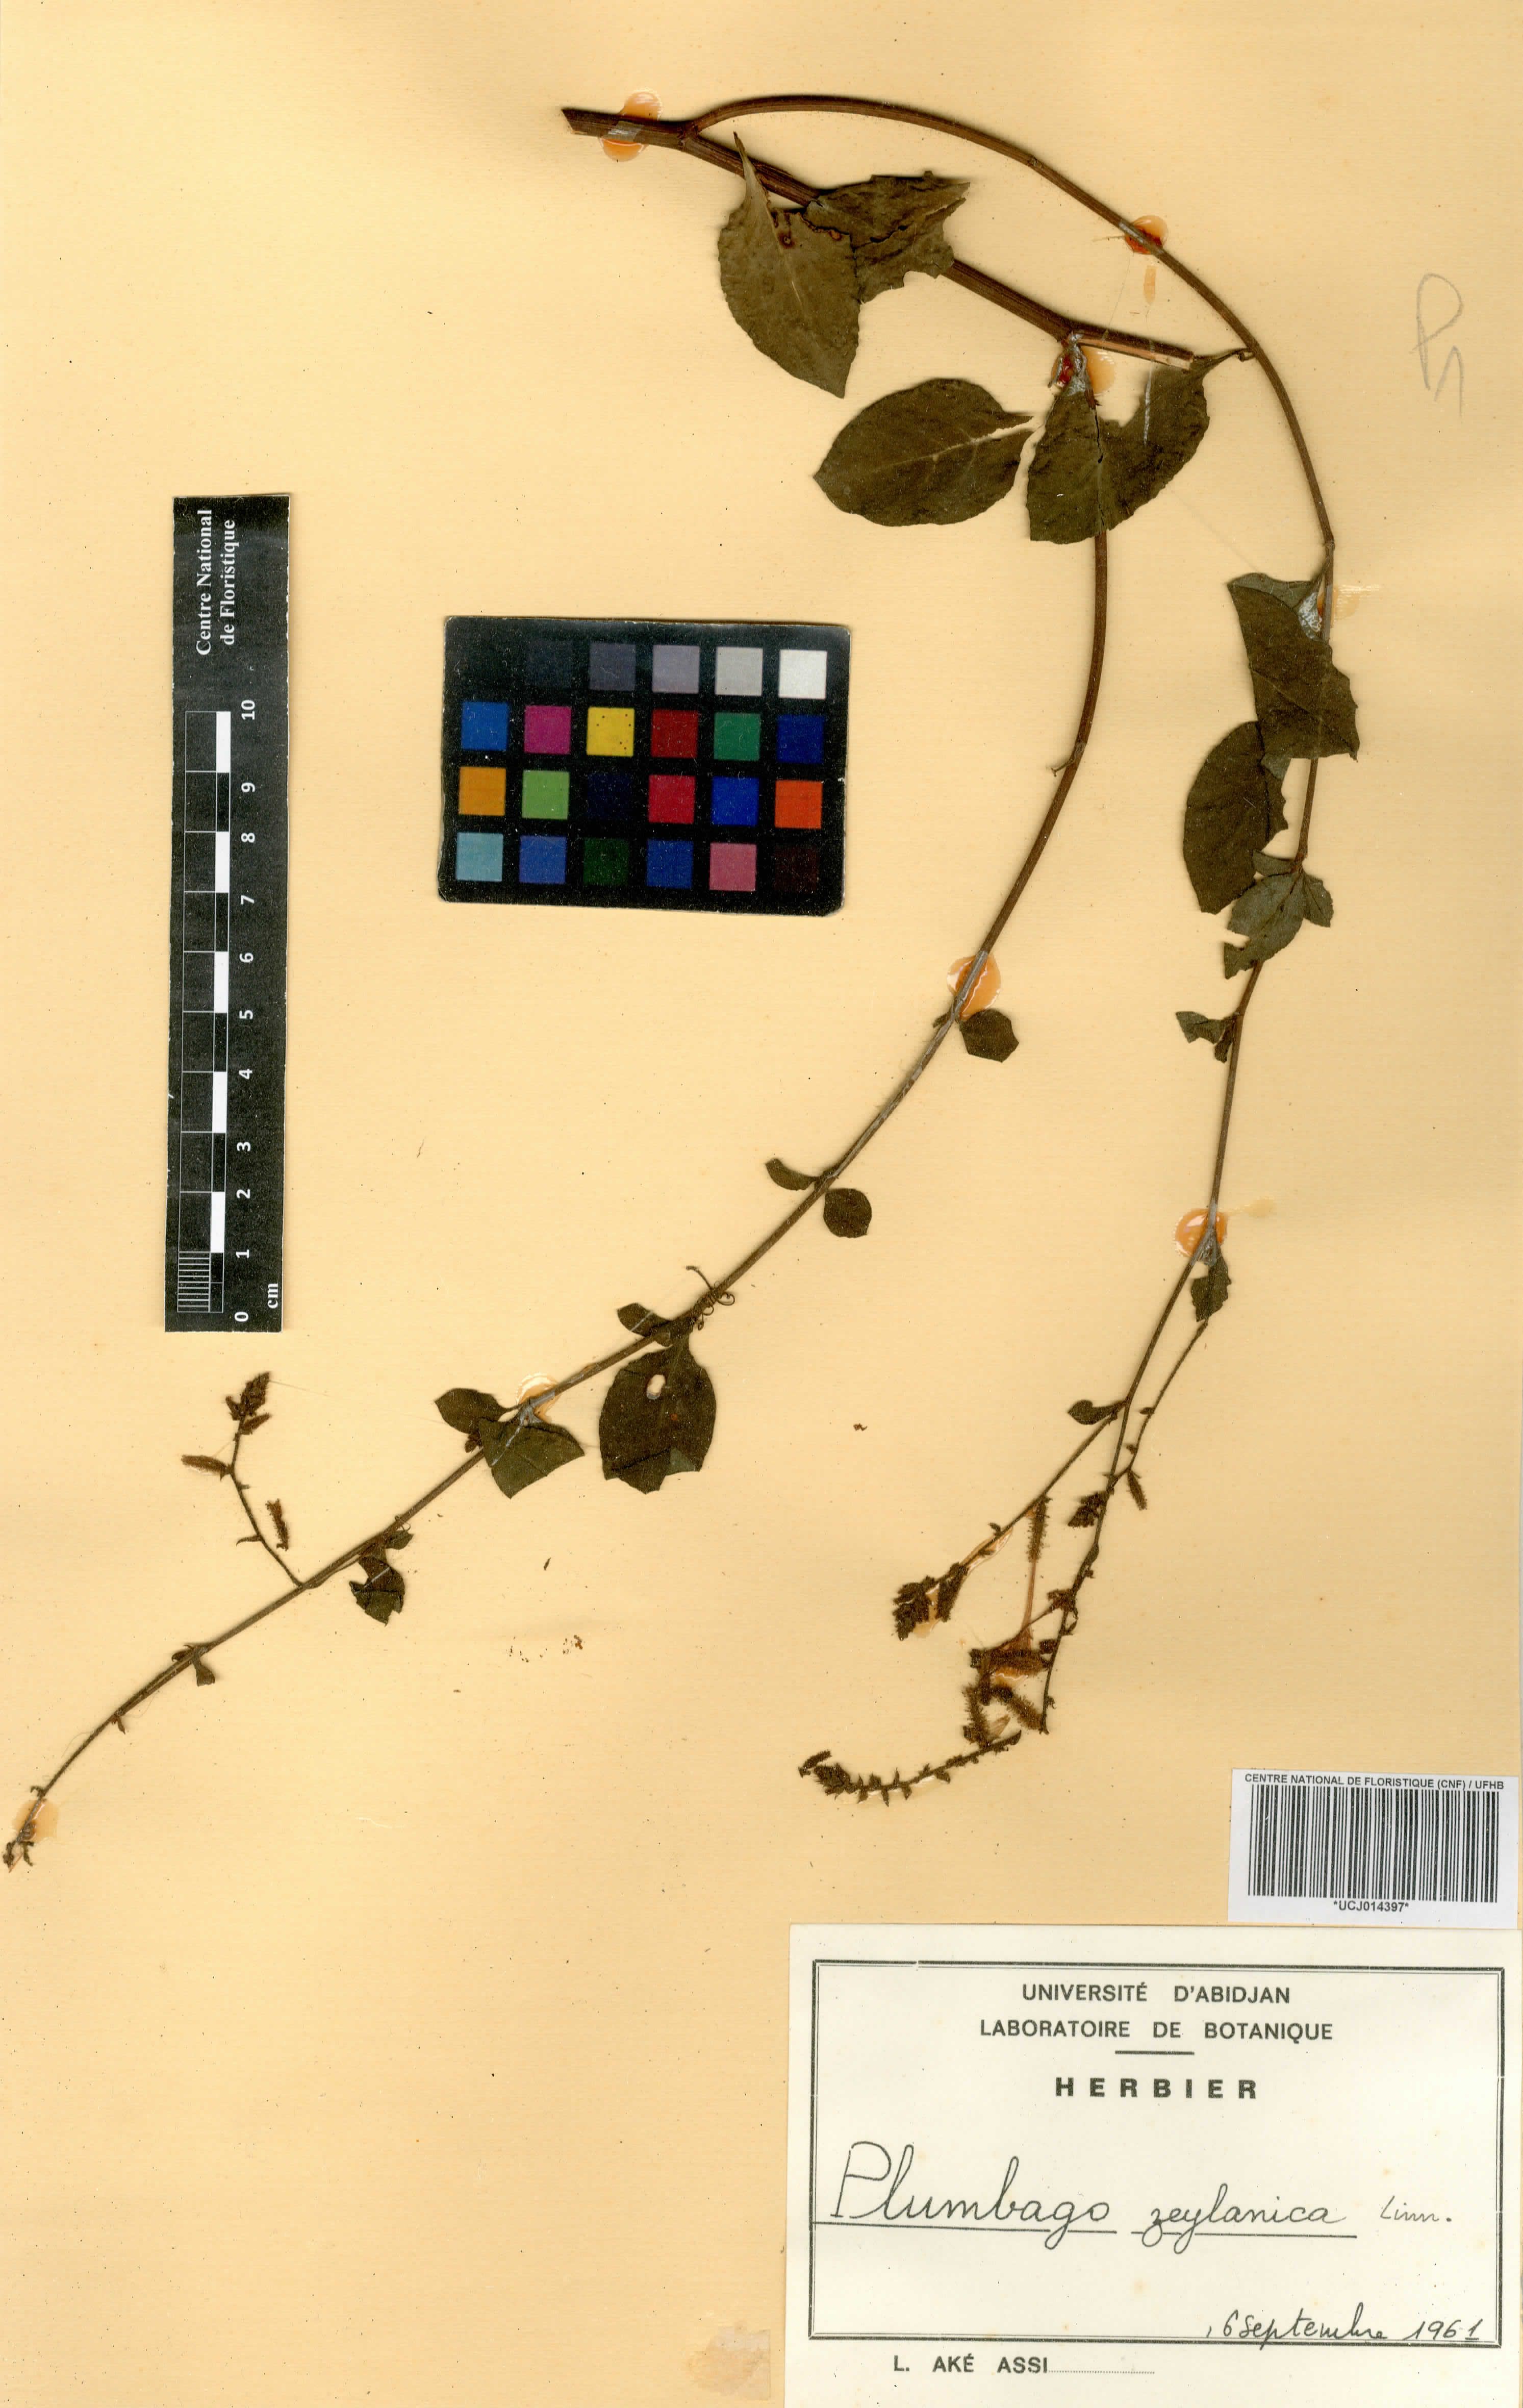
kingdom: Plantae
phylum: Tracheophyta
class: Magnoliopsida
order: Caryophyllales
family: Plumbaginaceae
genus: Plumbago
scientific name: Plumbago zeylanica
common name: Doctorbush
